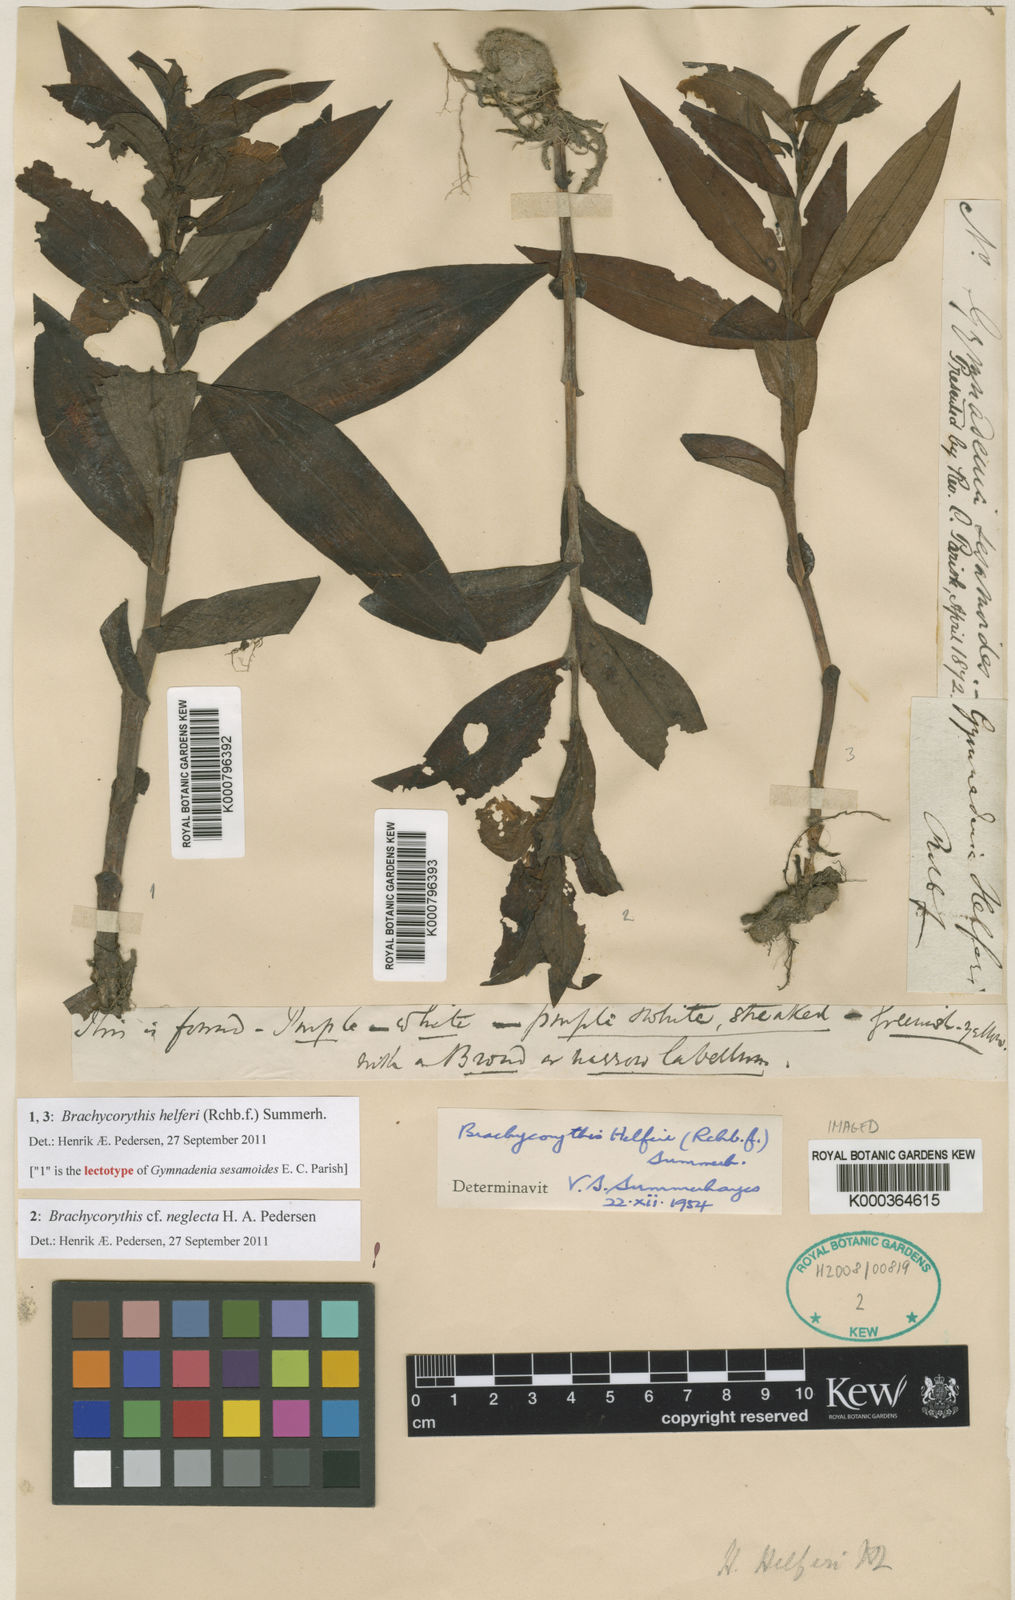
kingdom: Plantae
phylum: Tracheophyta
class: Liliopsida
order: Asparagales
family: Orchidaceae
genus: Brachycorythis
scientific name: Brachycorythis helferi
